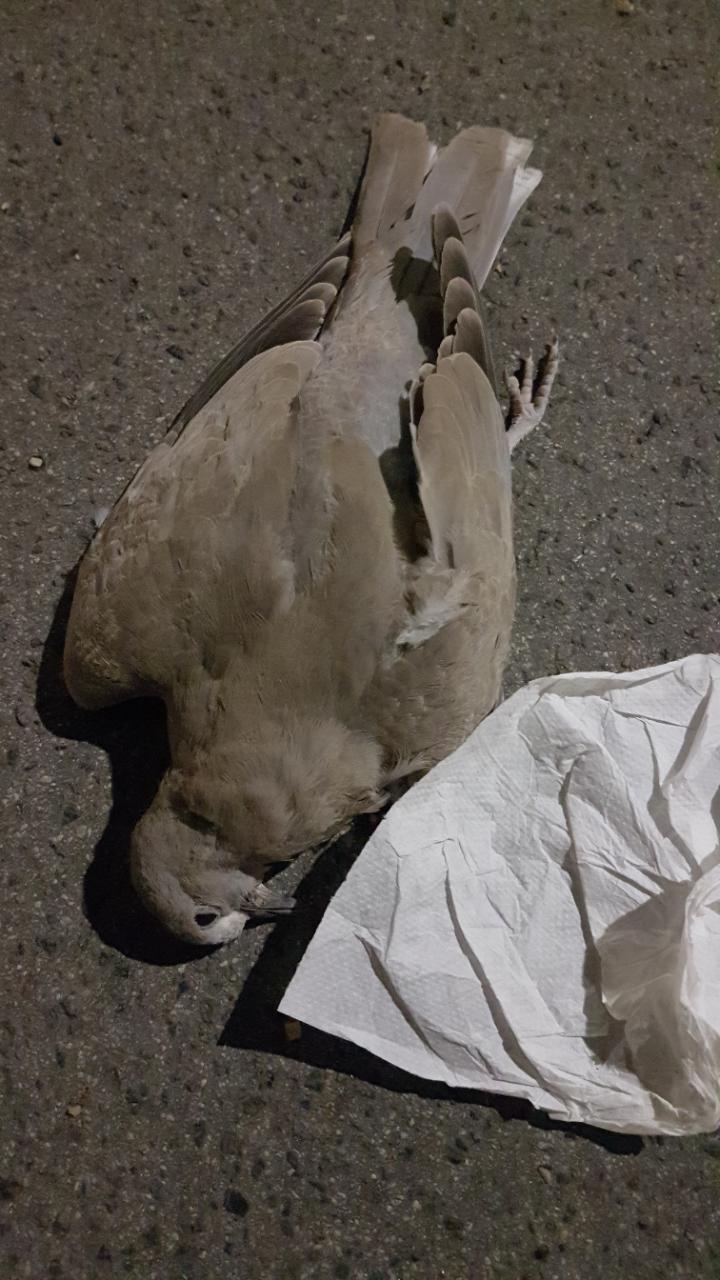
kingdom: Animalia
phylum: Chordata
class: Aves
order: Columbiformes
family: Columbidae
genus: Streptopelia
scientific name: Streptopelia decaocto
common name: Eurasian collared dove
